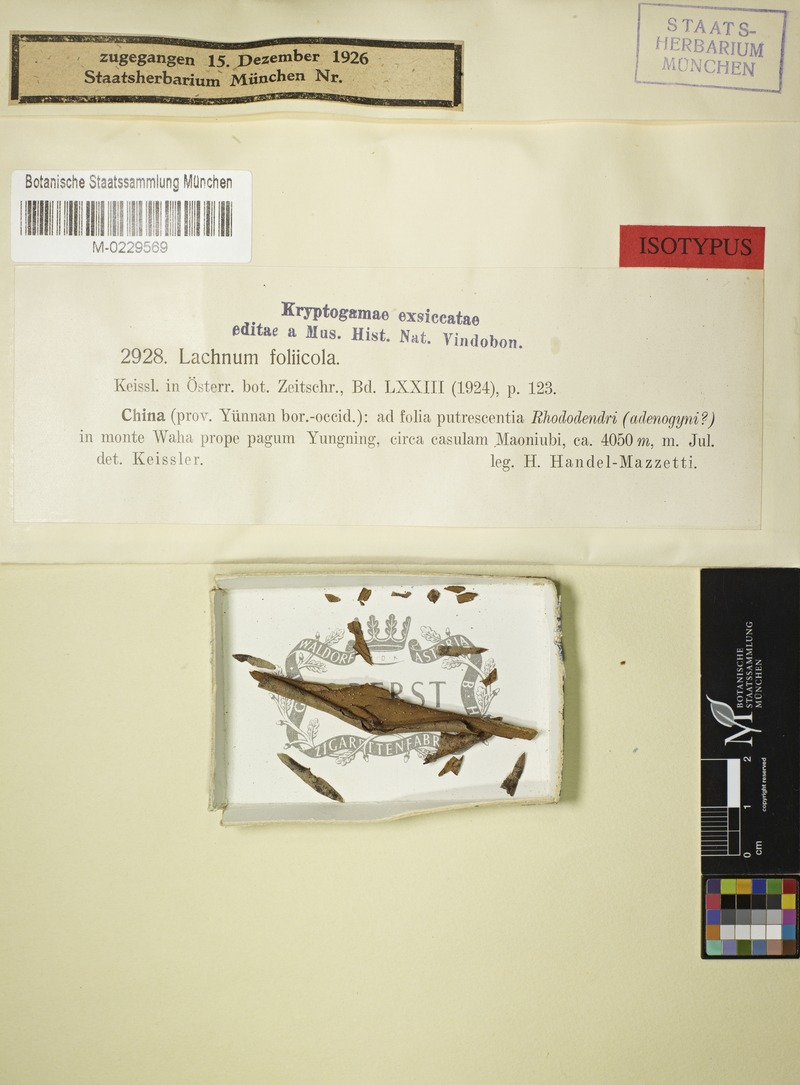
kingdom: Fungi
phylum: Ascomycota
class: Leotiomycetes
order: Helotiales
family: Lachnaceae
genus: Lachnum
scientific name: Lachnum foliicola
